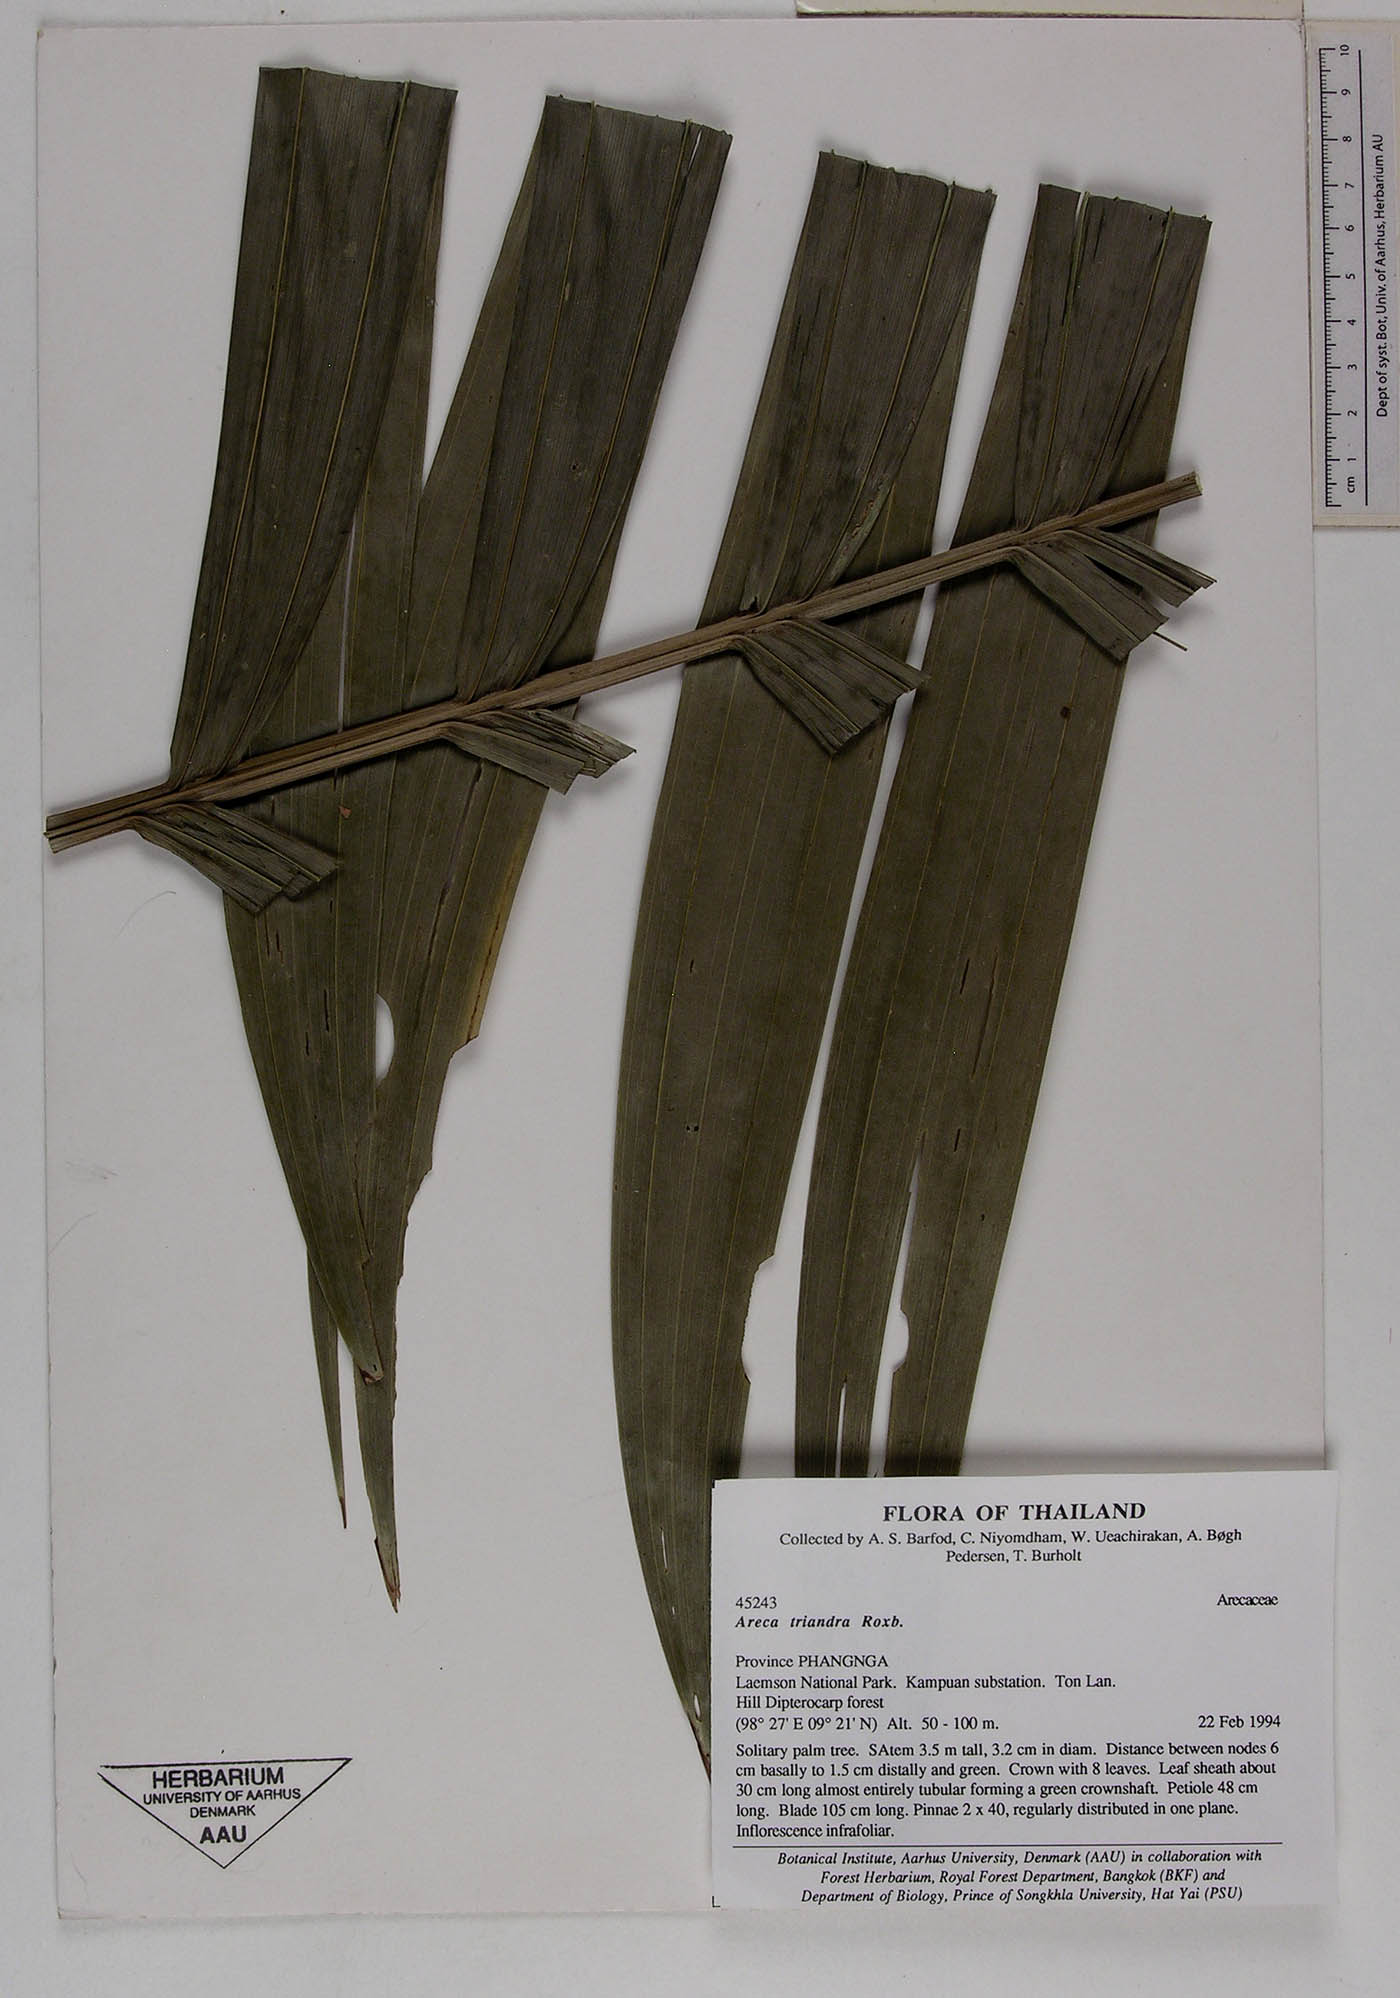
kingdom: Plantae
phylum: Tracheophyta
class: Liliopsida
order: Arecales
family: Arecaceae
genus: Areca
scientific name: Areca triandra
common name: Australian areca palm
